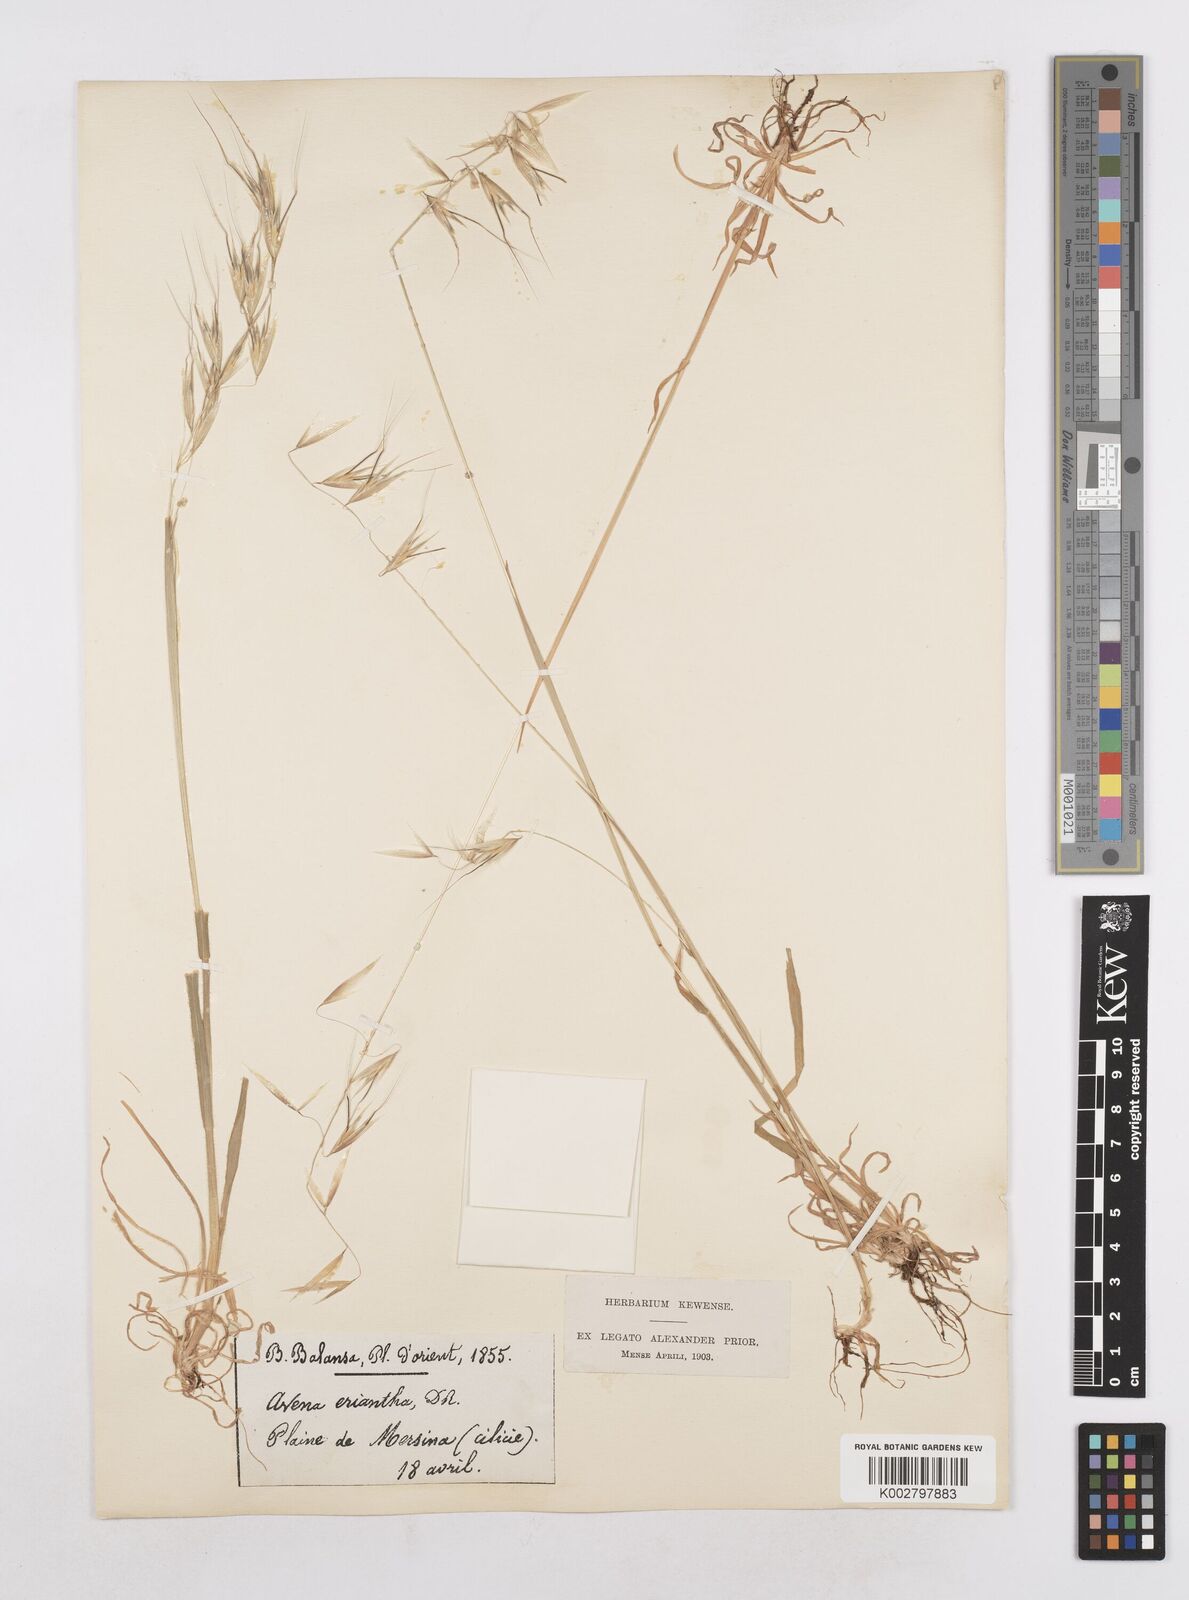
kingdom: Plantae
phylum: Tracheophyta
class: Liliopsida
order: Poales
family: Poaceae
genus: Avena
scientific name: Avena eriantha
